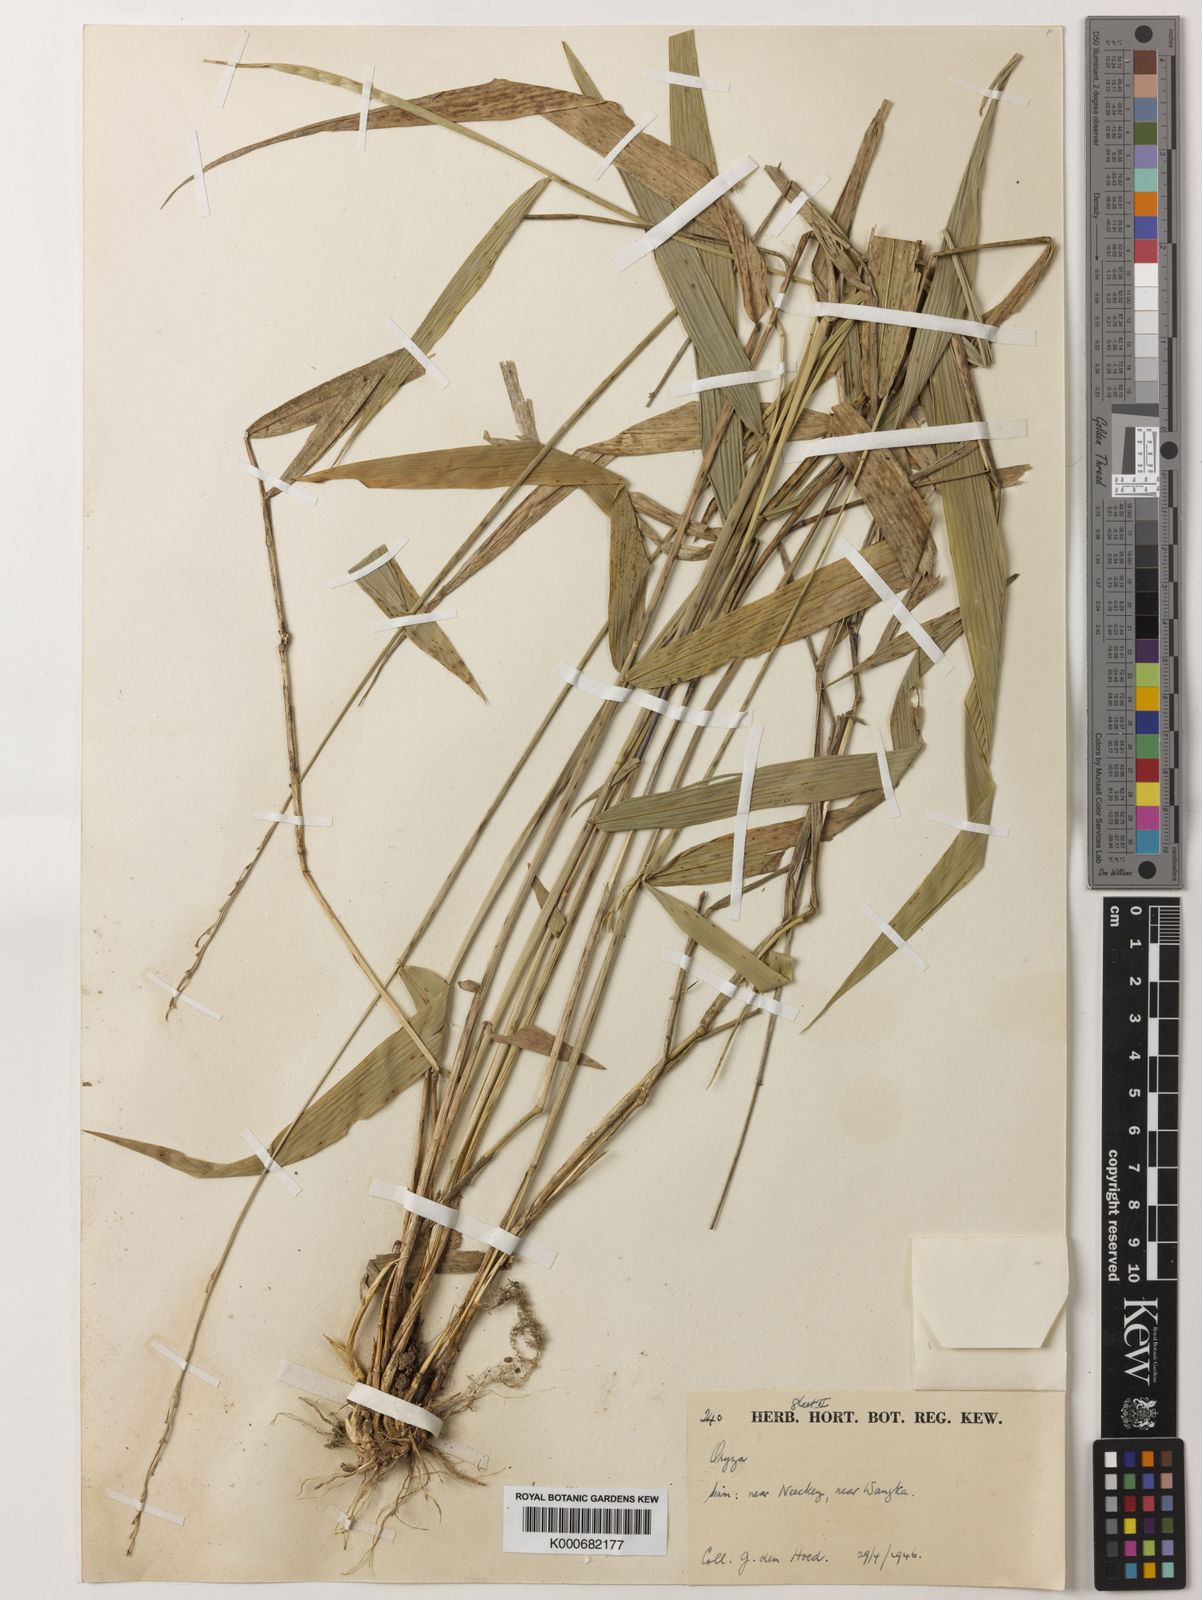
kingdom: Plantae
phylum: Tracheophyta
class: Liliopsida
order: Poales
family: Poaceae
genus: Oryza
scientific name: Oryza meyeriana
